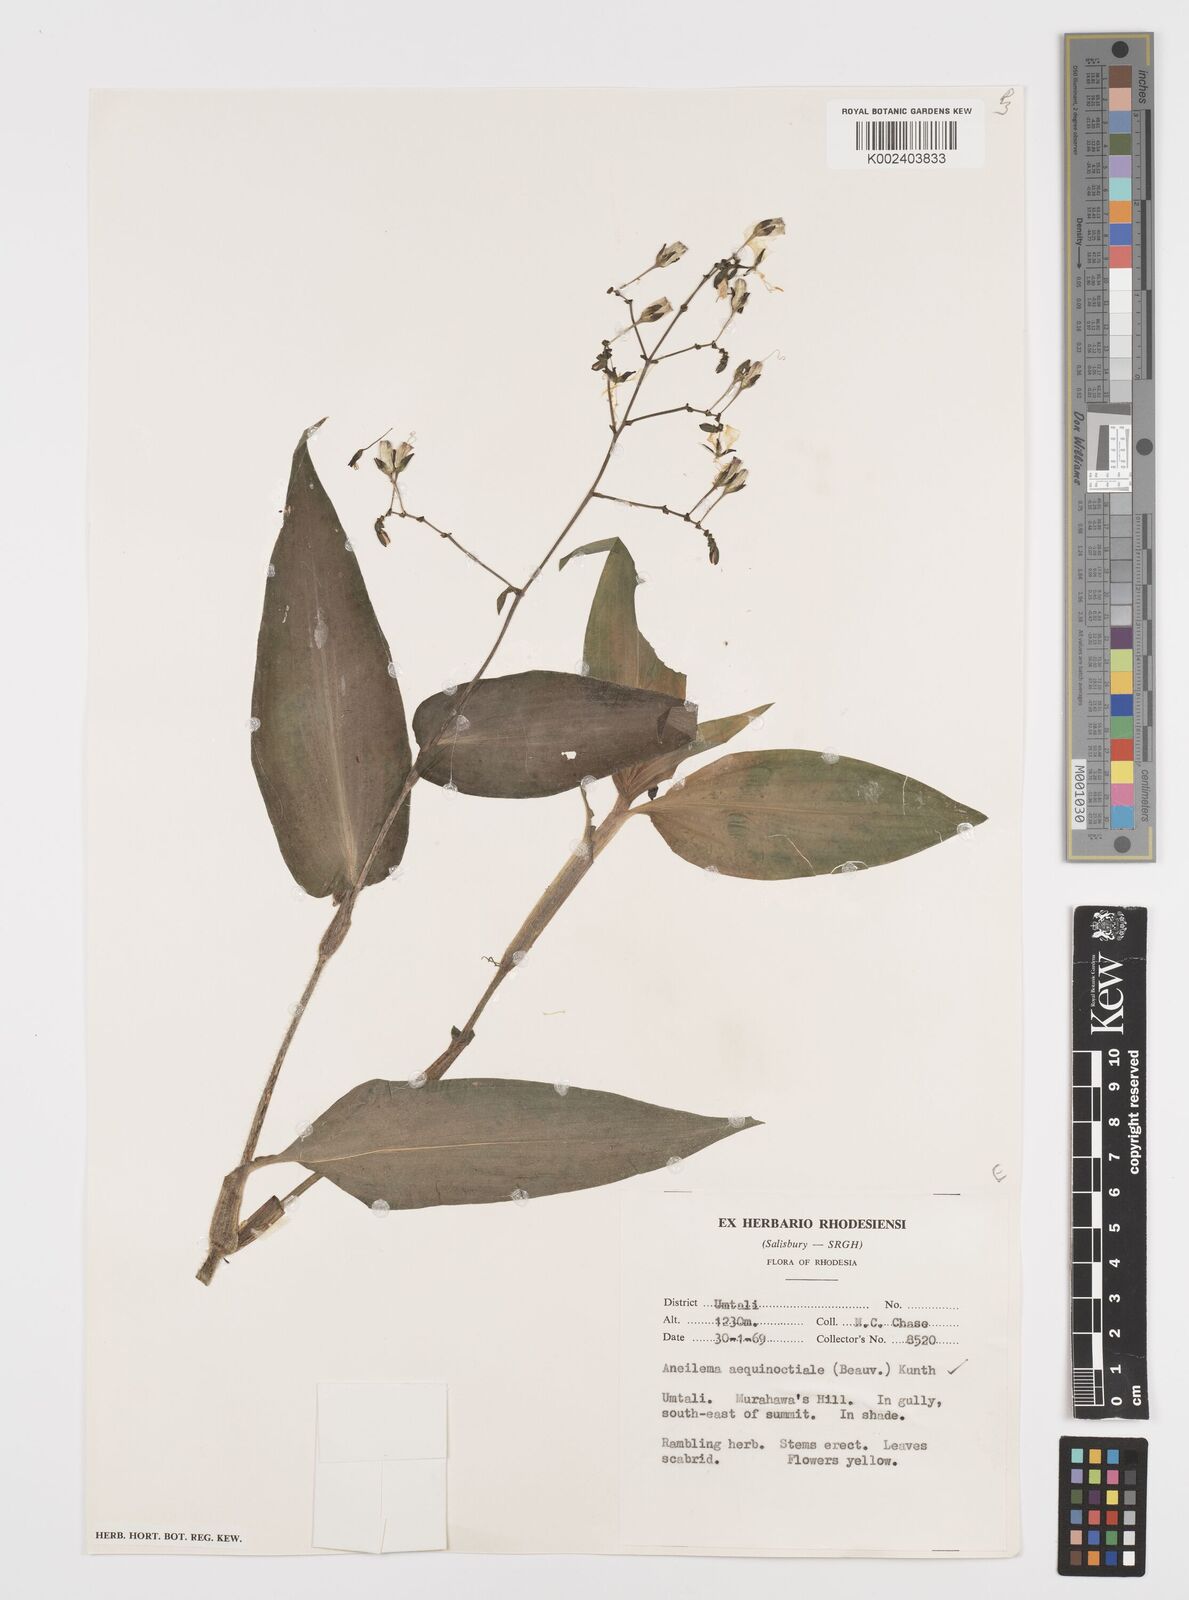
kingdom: Plantae
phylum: Tracheophyta
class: Liliopsida
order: Commelinales
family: Commelinaceae
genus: Aneilema
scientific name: Aneilema aequinoctiale
